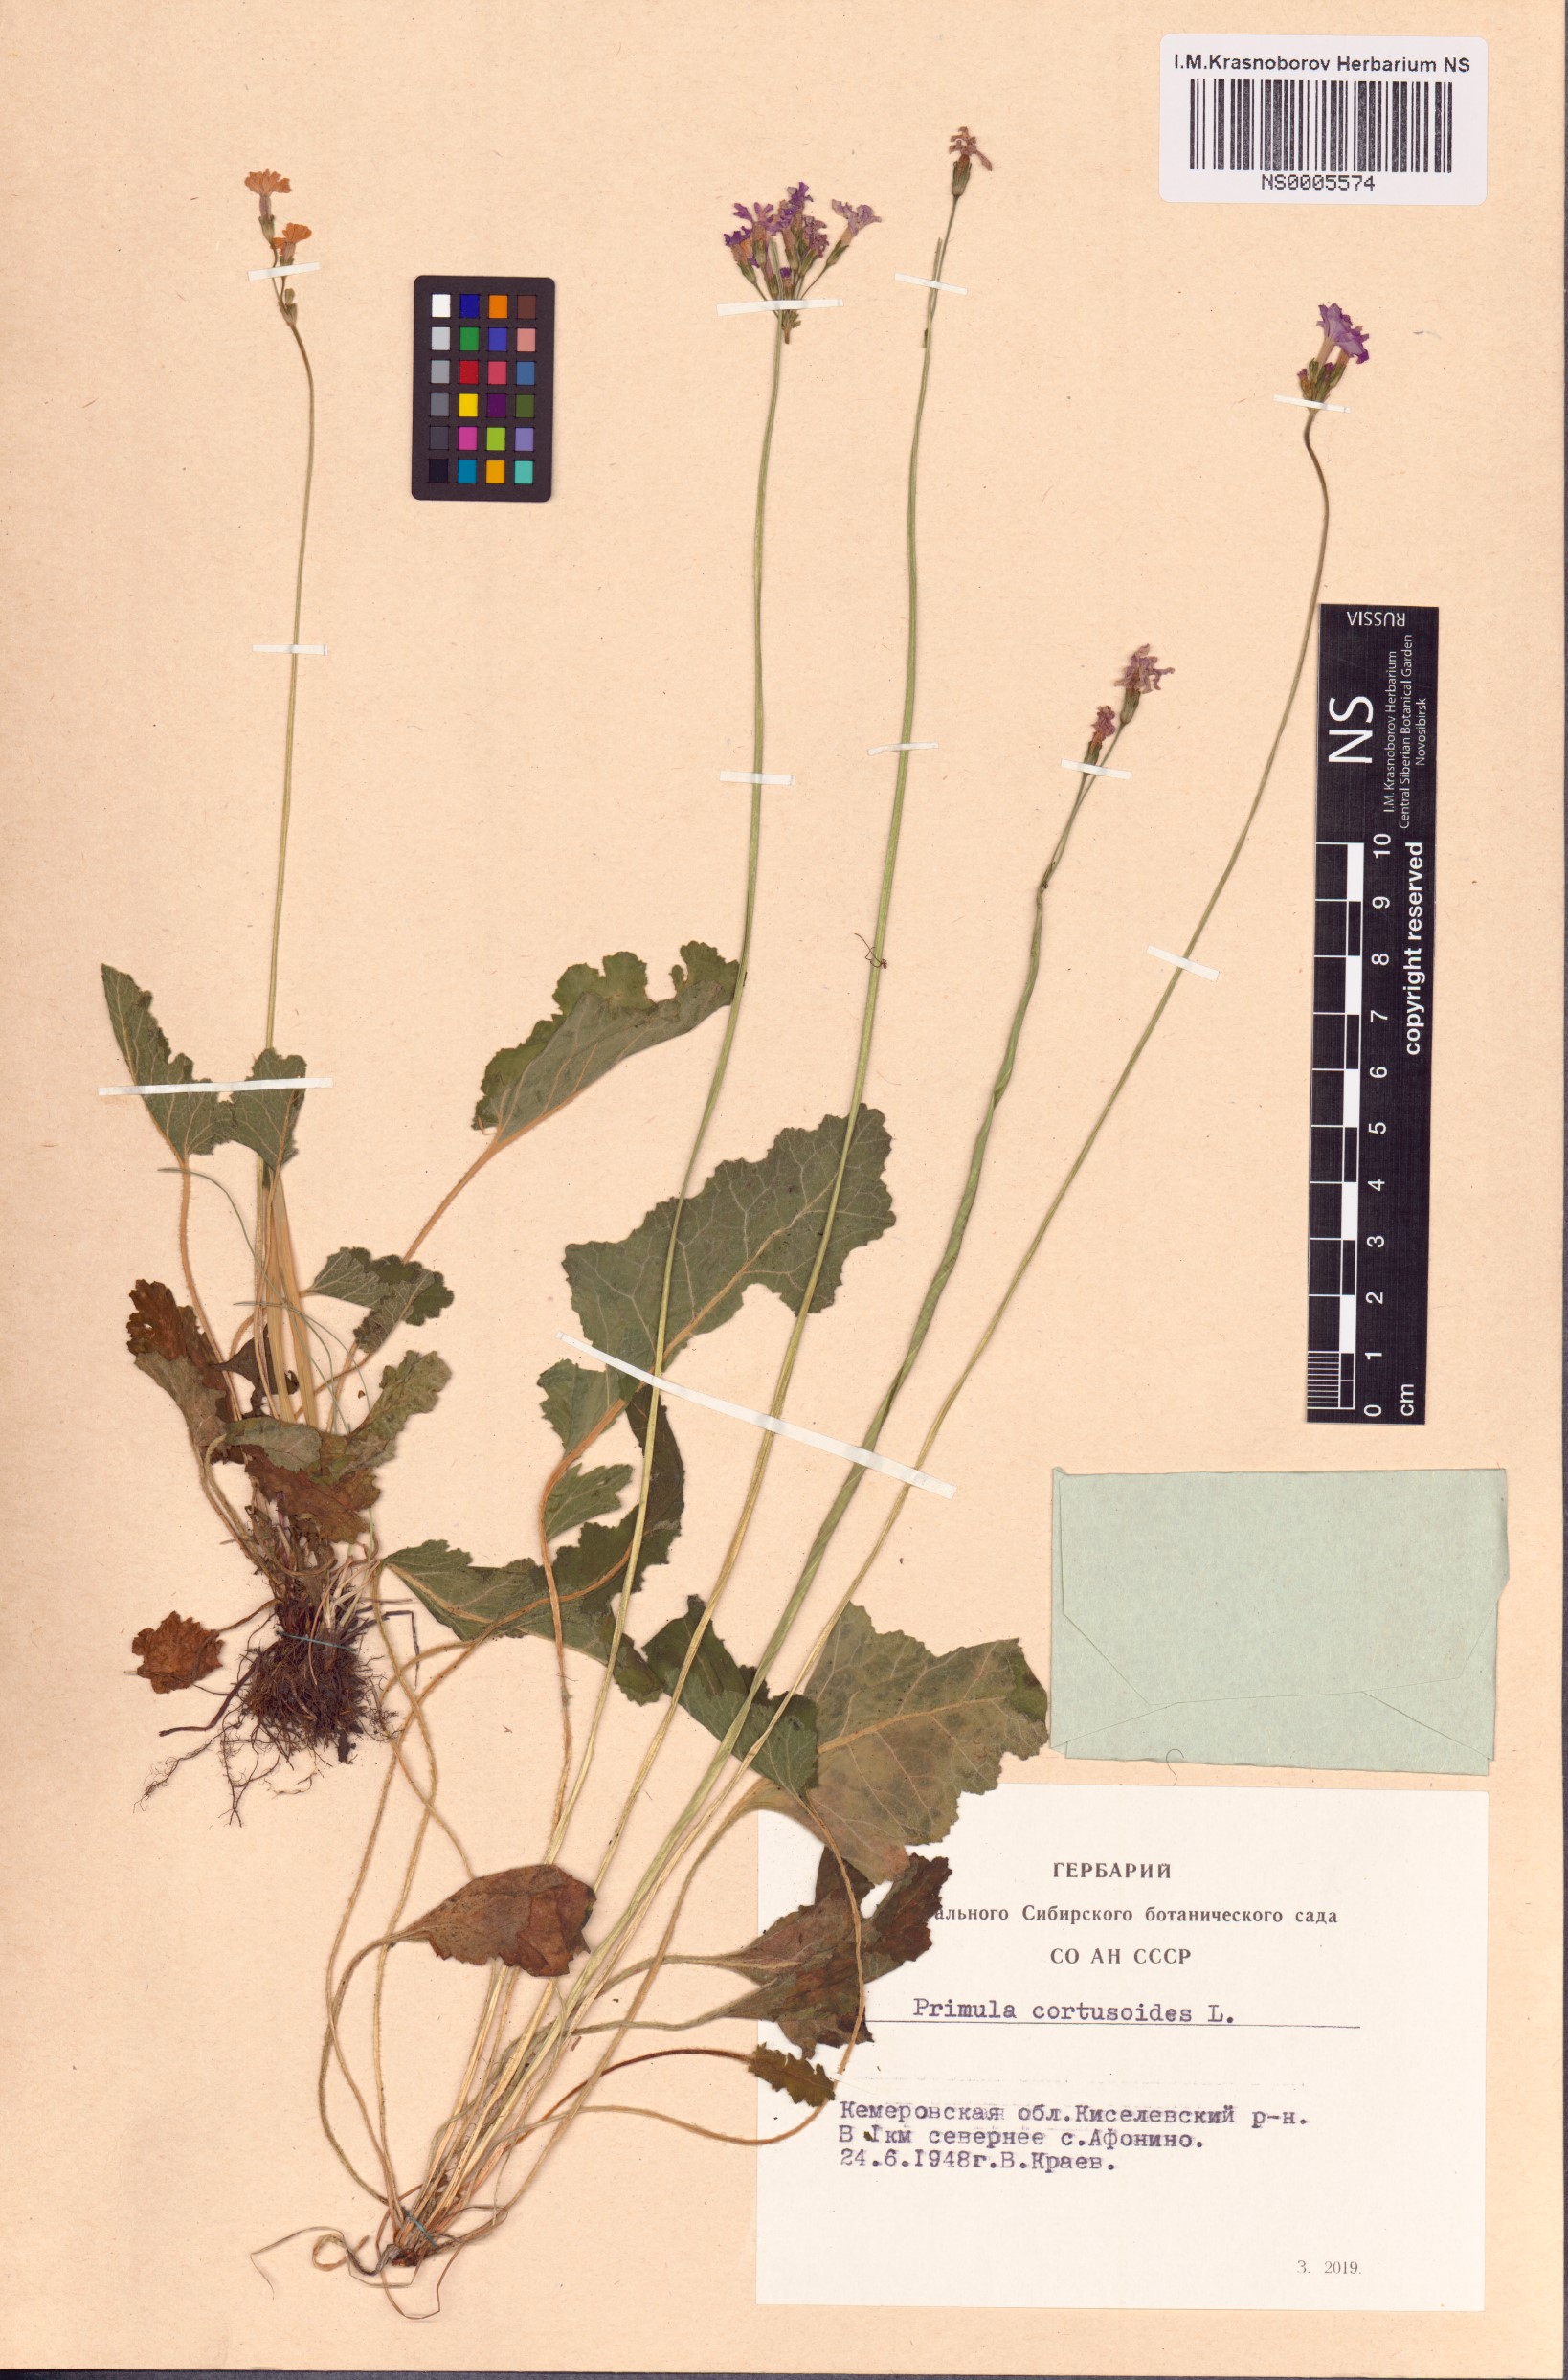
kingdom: Plantae
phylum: Tracheophyta
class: Magnoliopsida
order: Ericales
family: Primulaceae
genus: Primula
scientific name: Primula cortusoides
